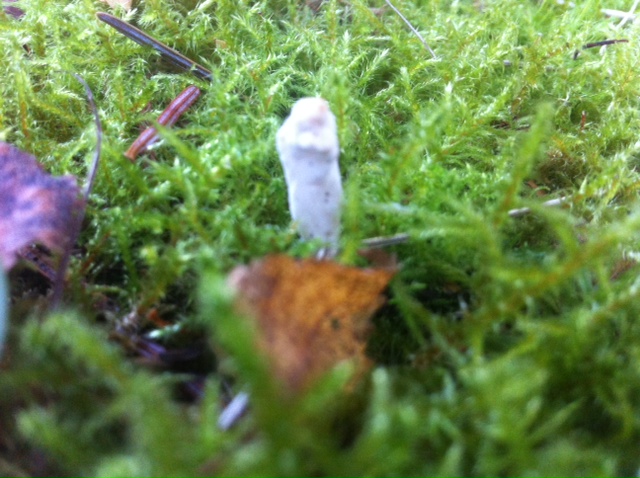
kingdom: Fungi
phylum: Basidiomycota
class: Agaricomycetes
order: Agaricales
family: Clavariaceae
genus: Clavaria
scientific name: Clavaria
